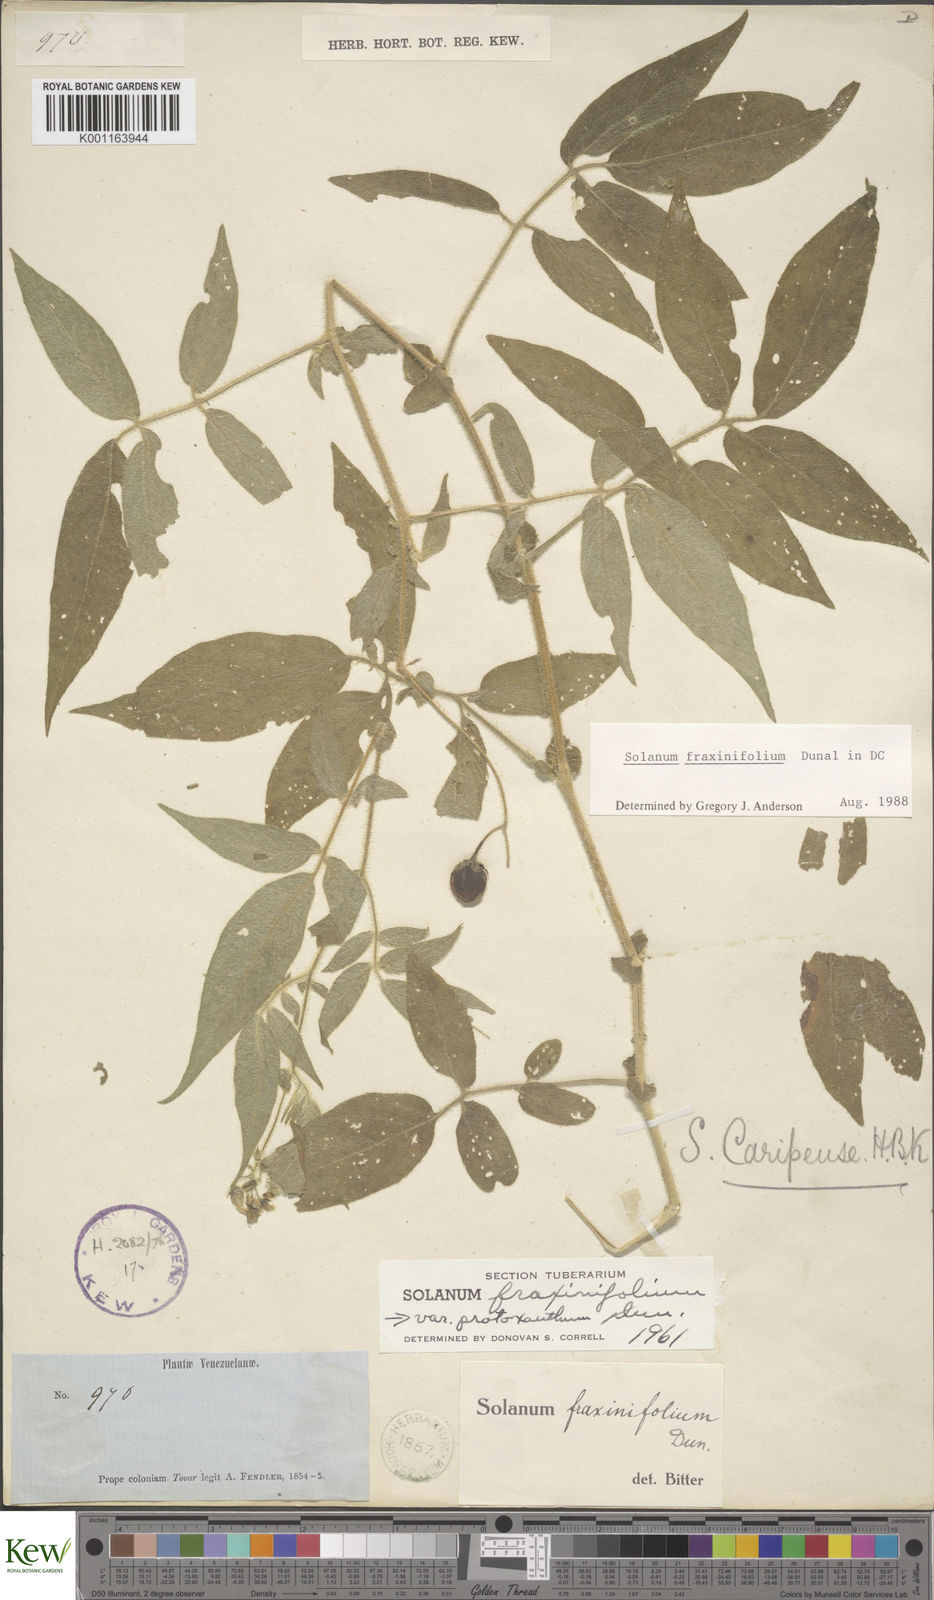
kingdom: Plantae
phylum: Tracheophyta
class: Magnoliopsida
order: Solanales
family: Solanaceae
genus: Solanum
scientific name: Solanum fraxinifolium
